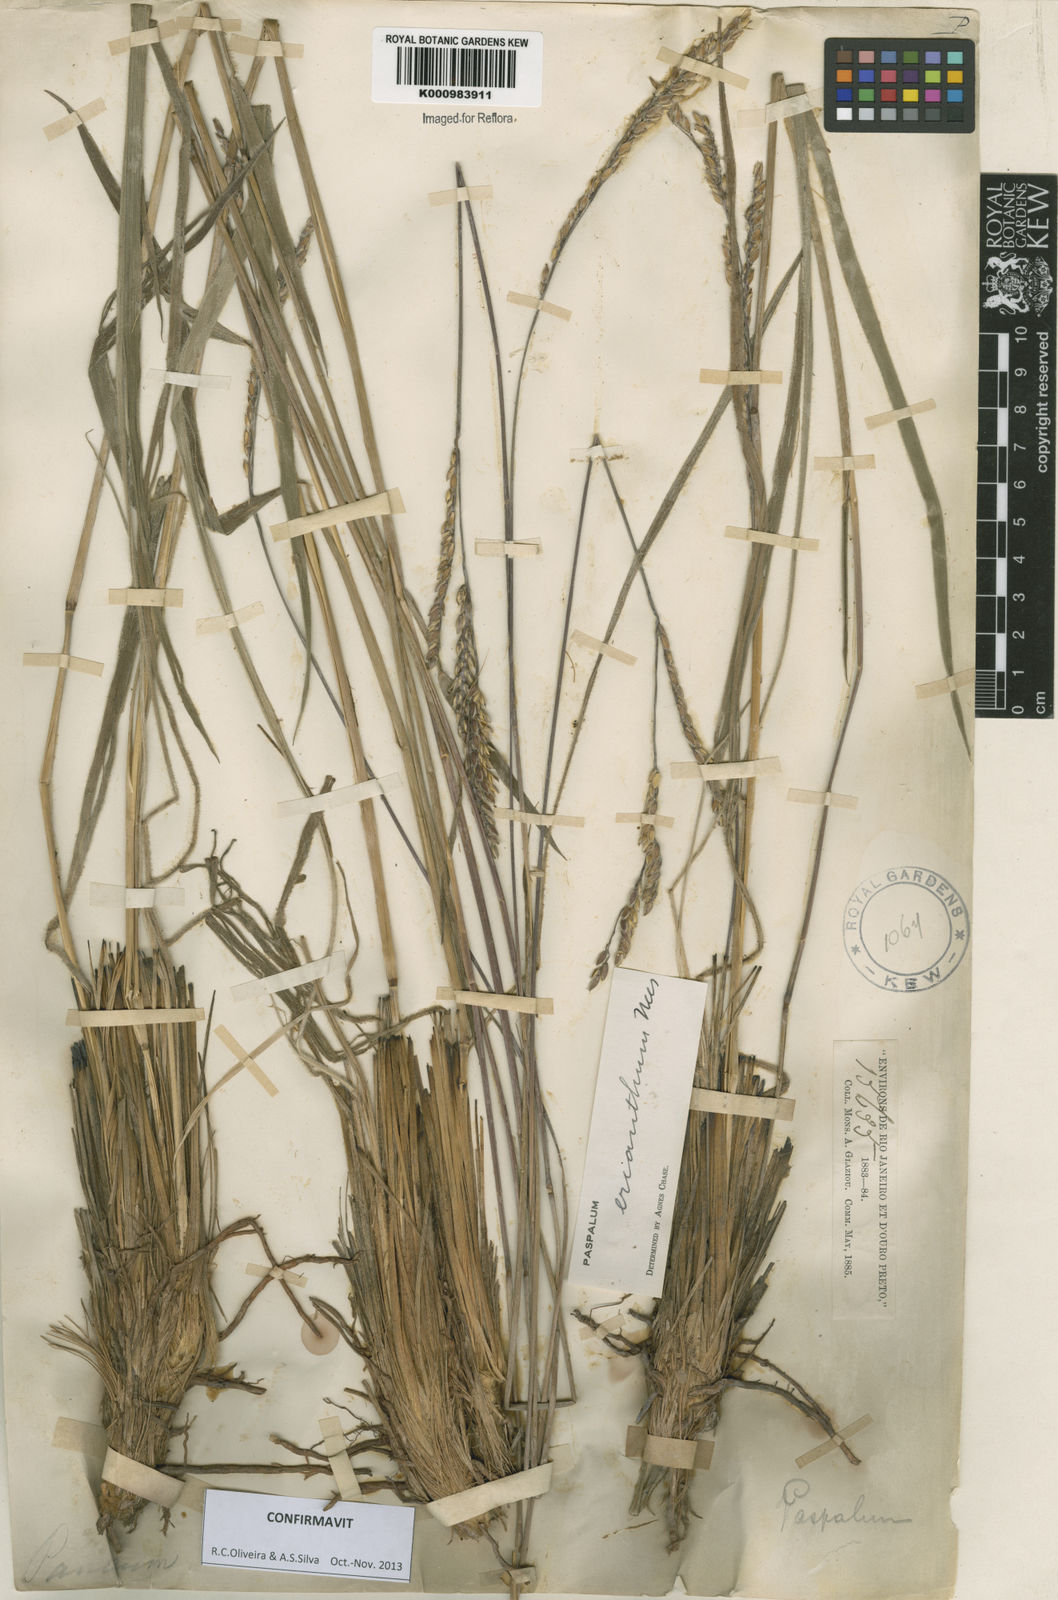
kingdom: Plantae
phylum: Tracheophyta
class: Liliopsida
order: Poales
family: Poaceae
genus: Paspalum
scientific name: Paspalum erianthum
